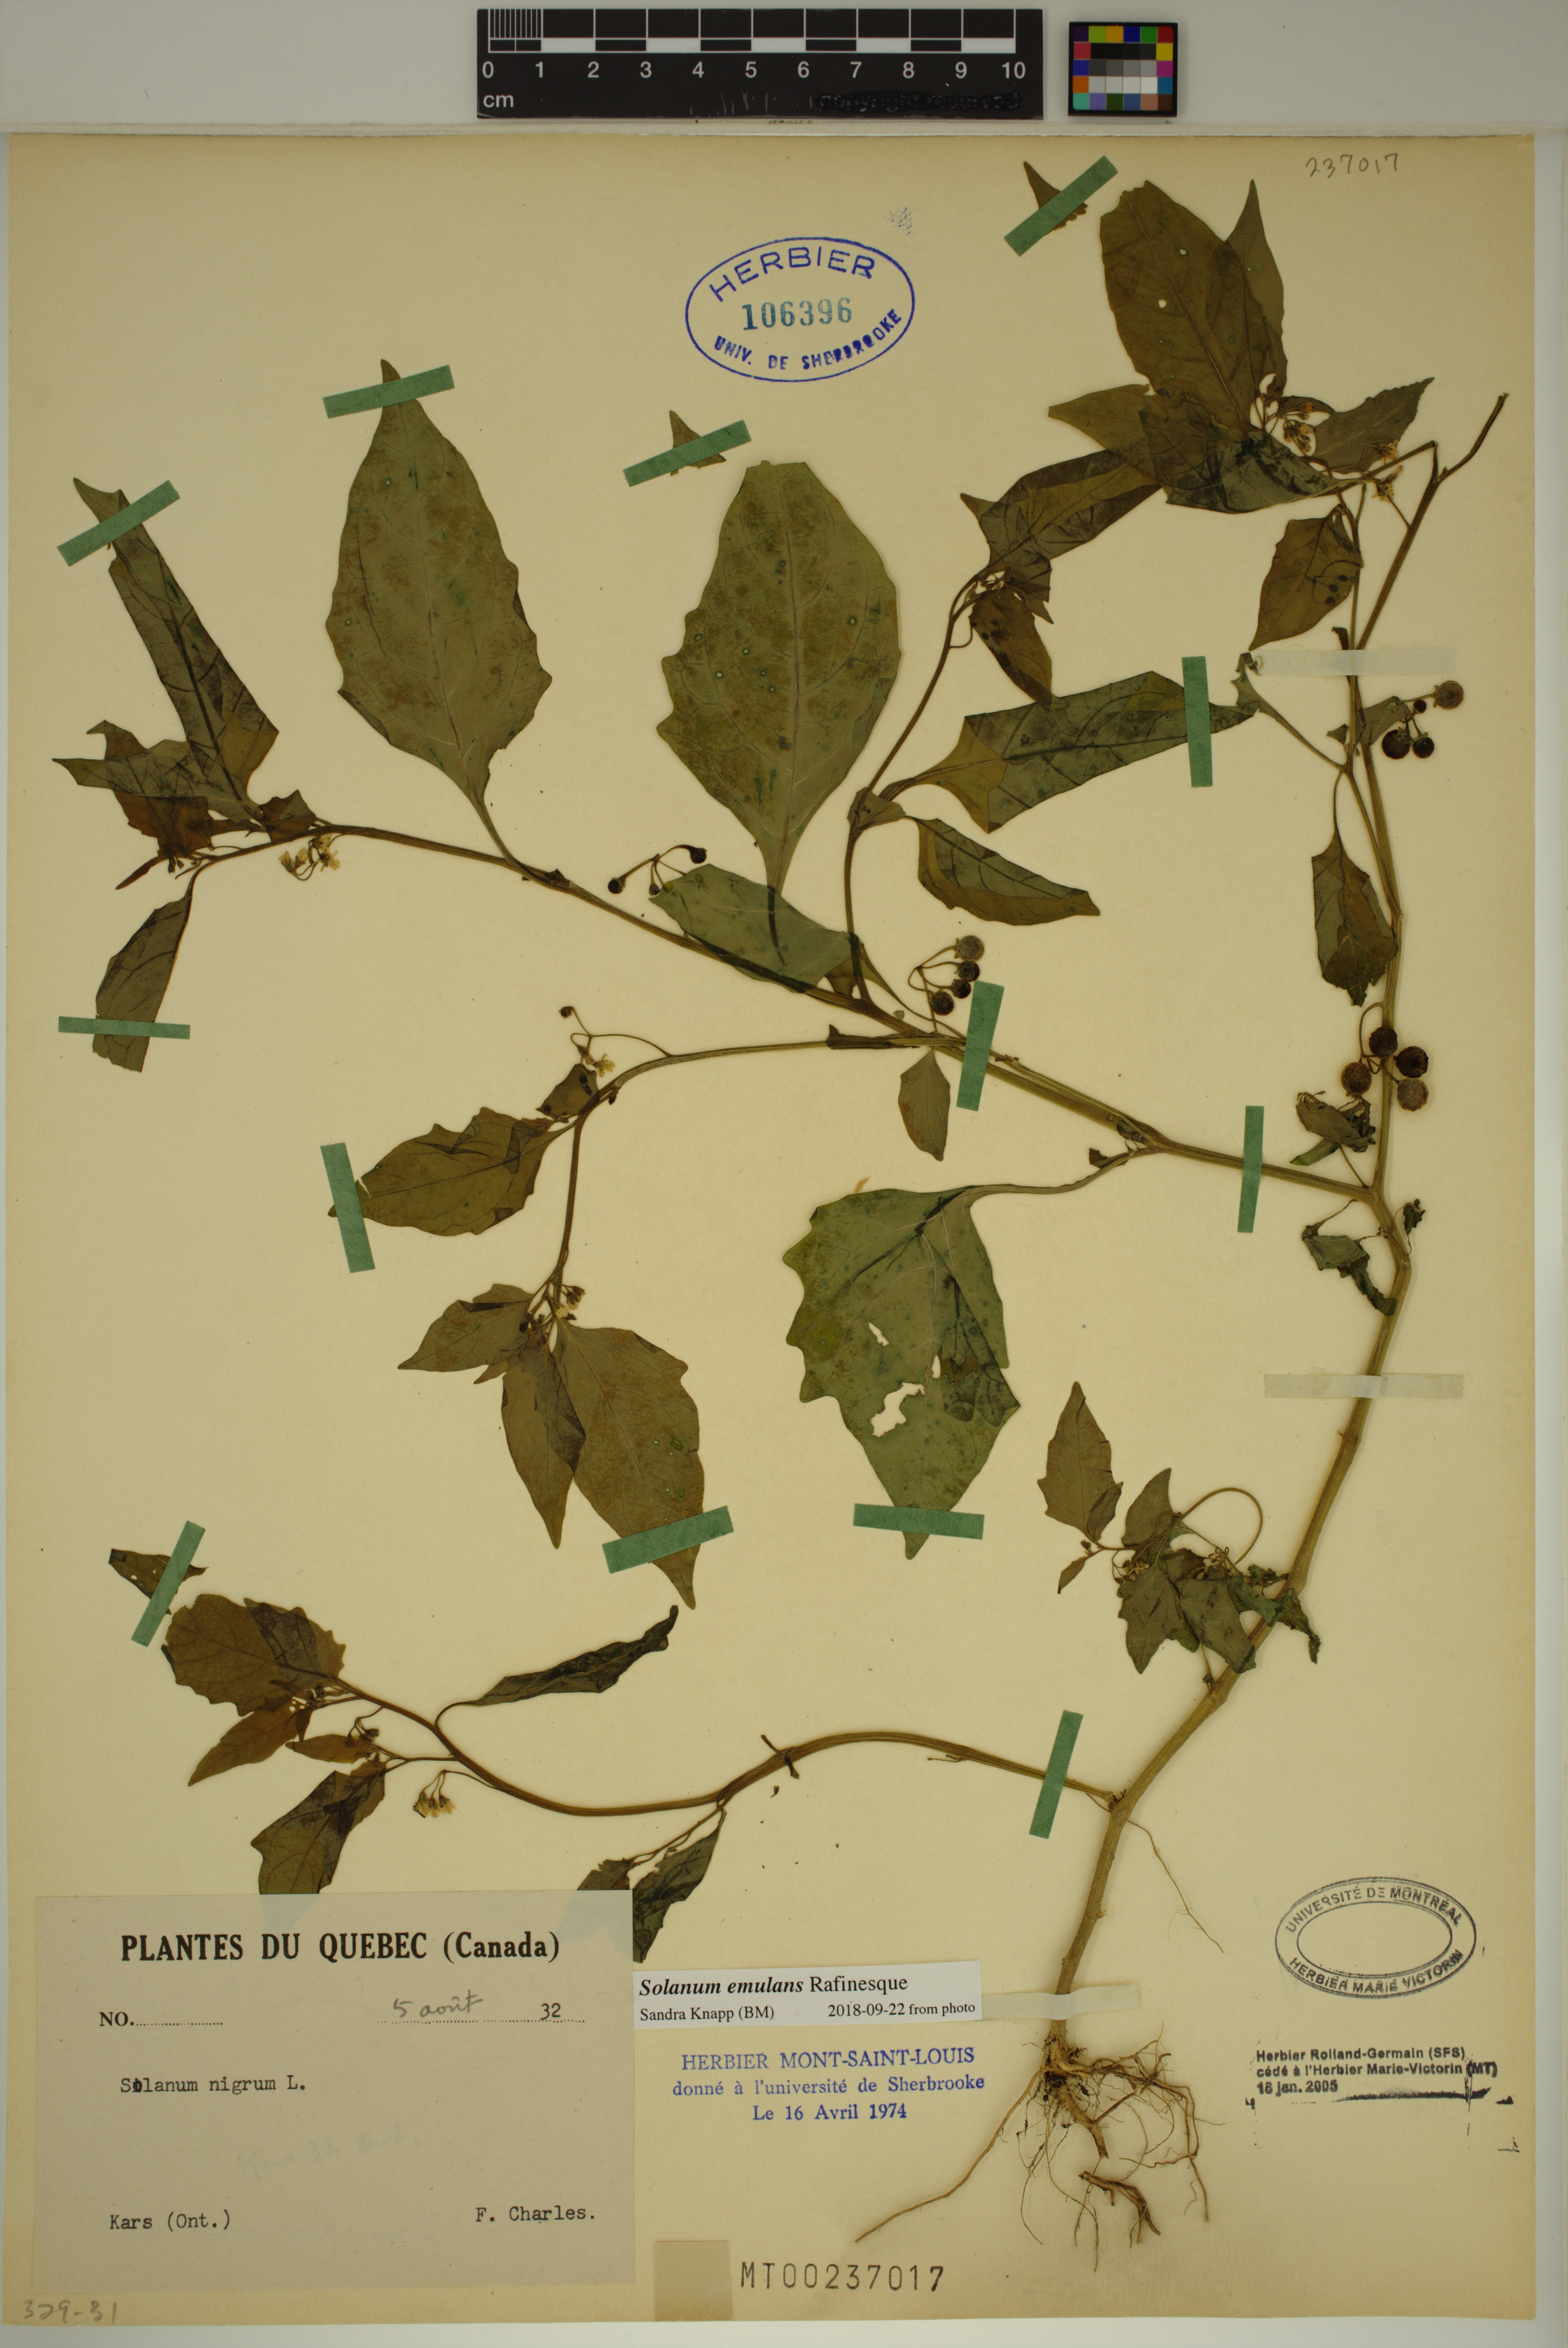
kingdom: Plantae
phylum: Tracheophyta
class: Magnoliopsida
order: Solanales
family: Solanaceae
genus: Solanum
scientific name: Solanum emulans
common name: Eastern black nightshade
